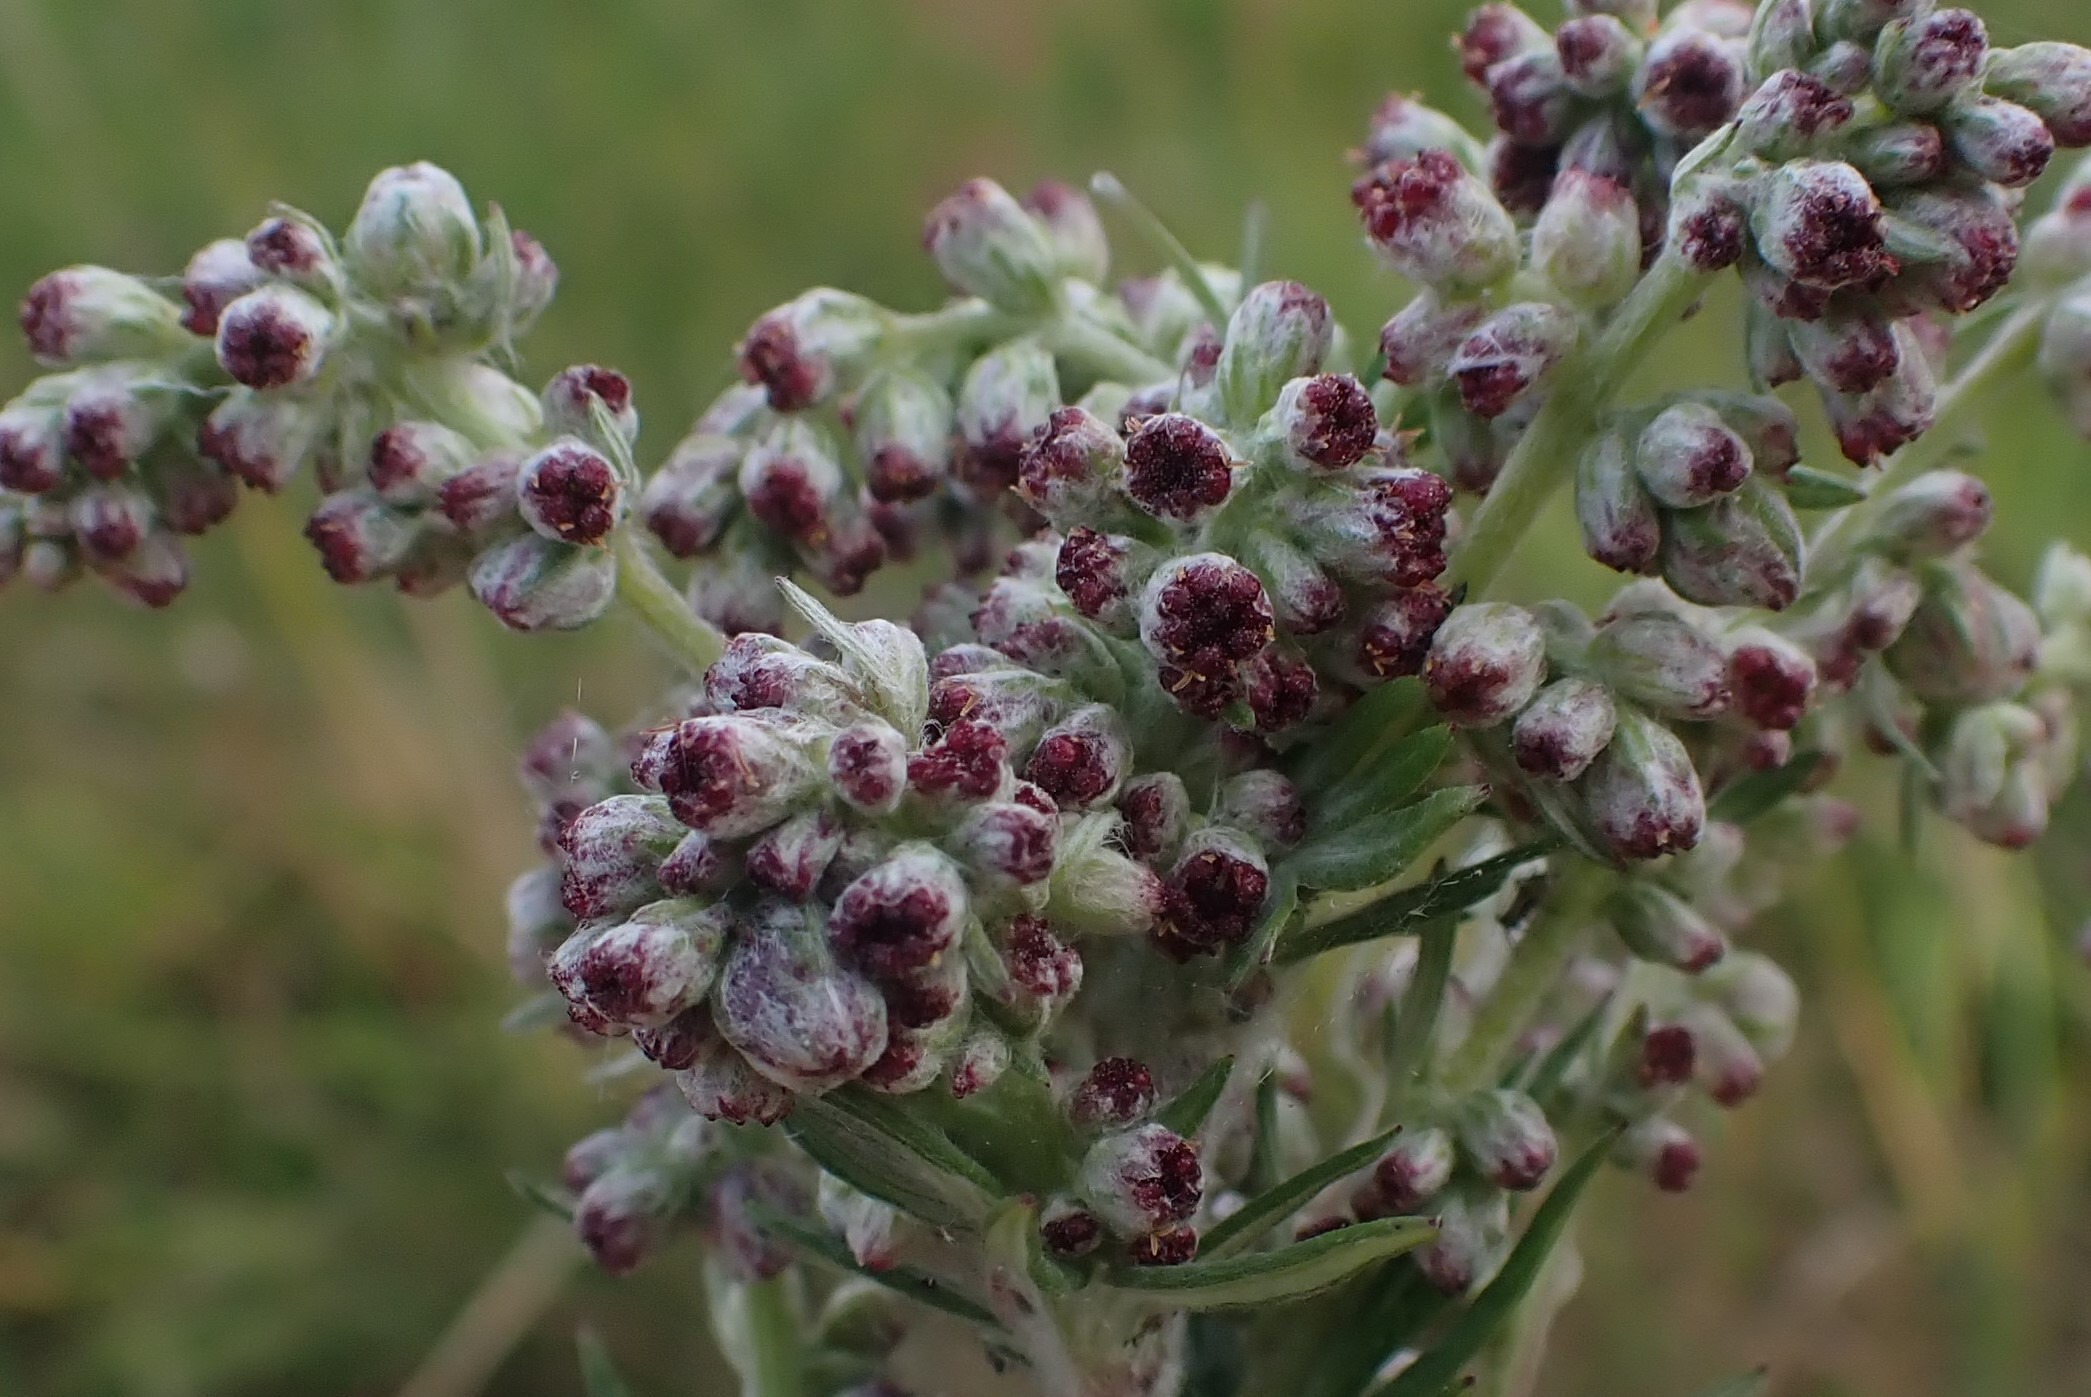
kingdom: Animalia
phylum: Arthropoda
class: Insecta
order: Diptera
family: Cecidomyiidae
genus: Ametrodiplosis
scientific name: Ametrodiplosis rudimentalis
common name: Bynkekurvgalmyg
